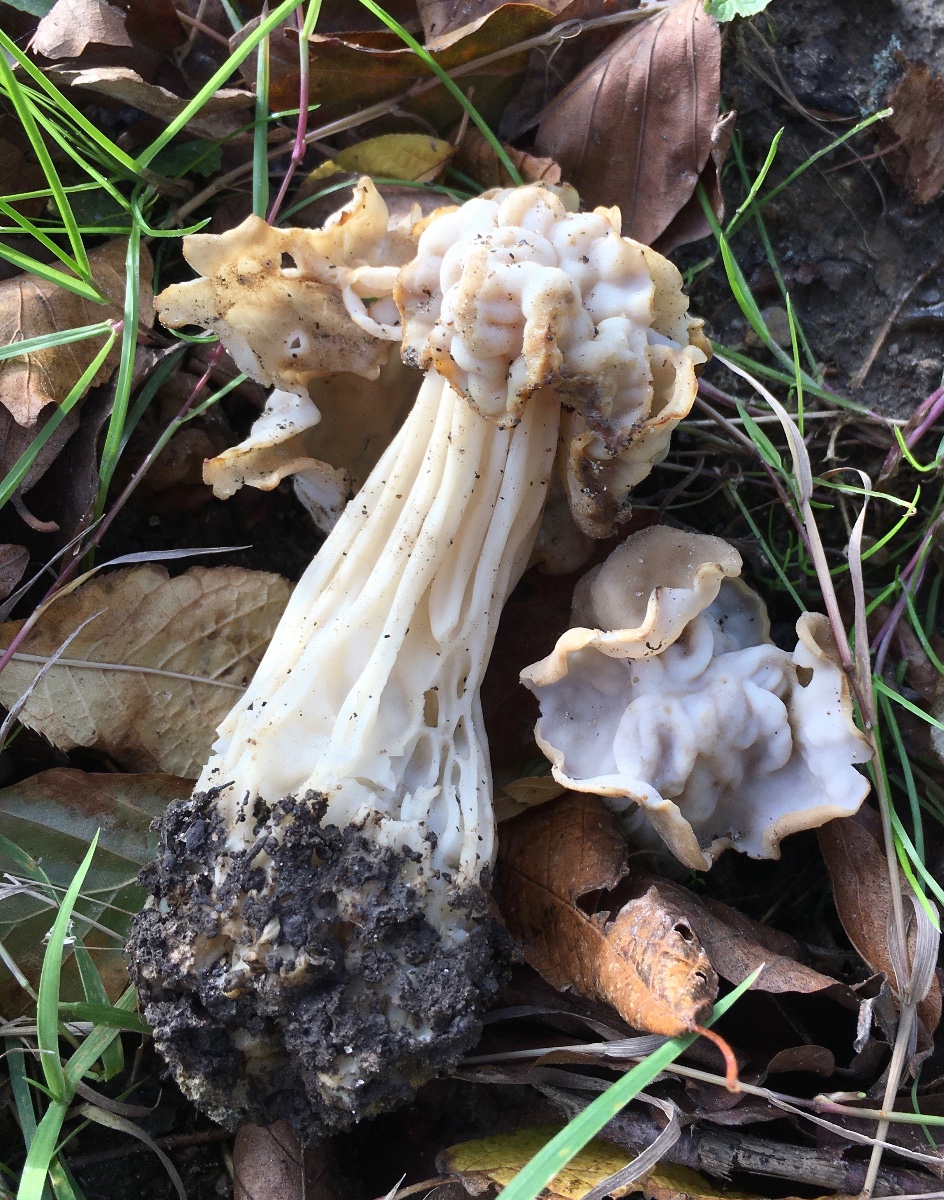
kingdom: Fungi
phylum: Ascomycota
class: Pezizomycetes
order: Pezizales
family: Helvellaceae
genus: Helvella
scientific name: Helvella crispa
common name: kruset foldhat
